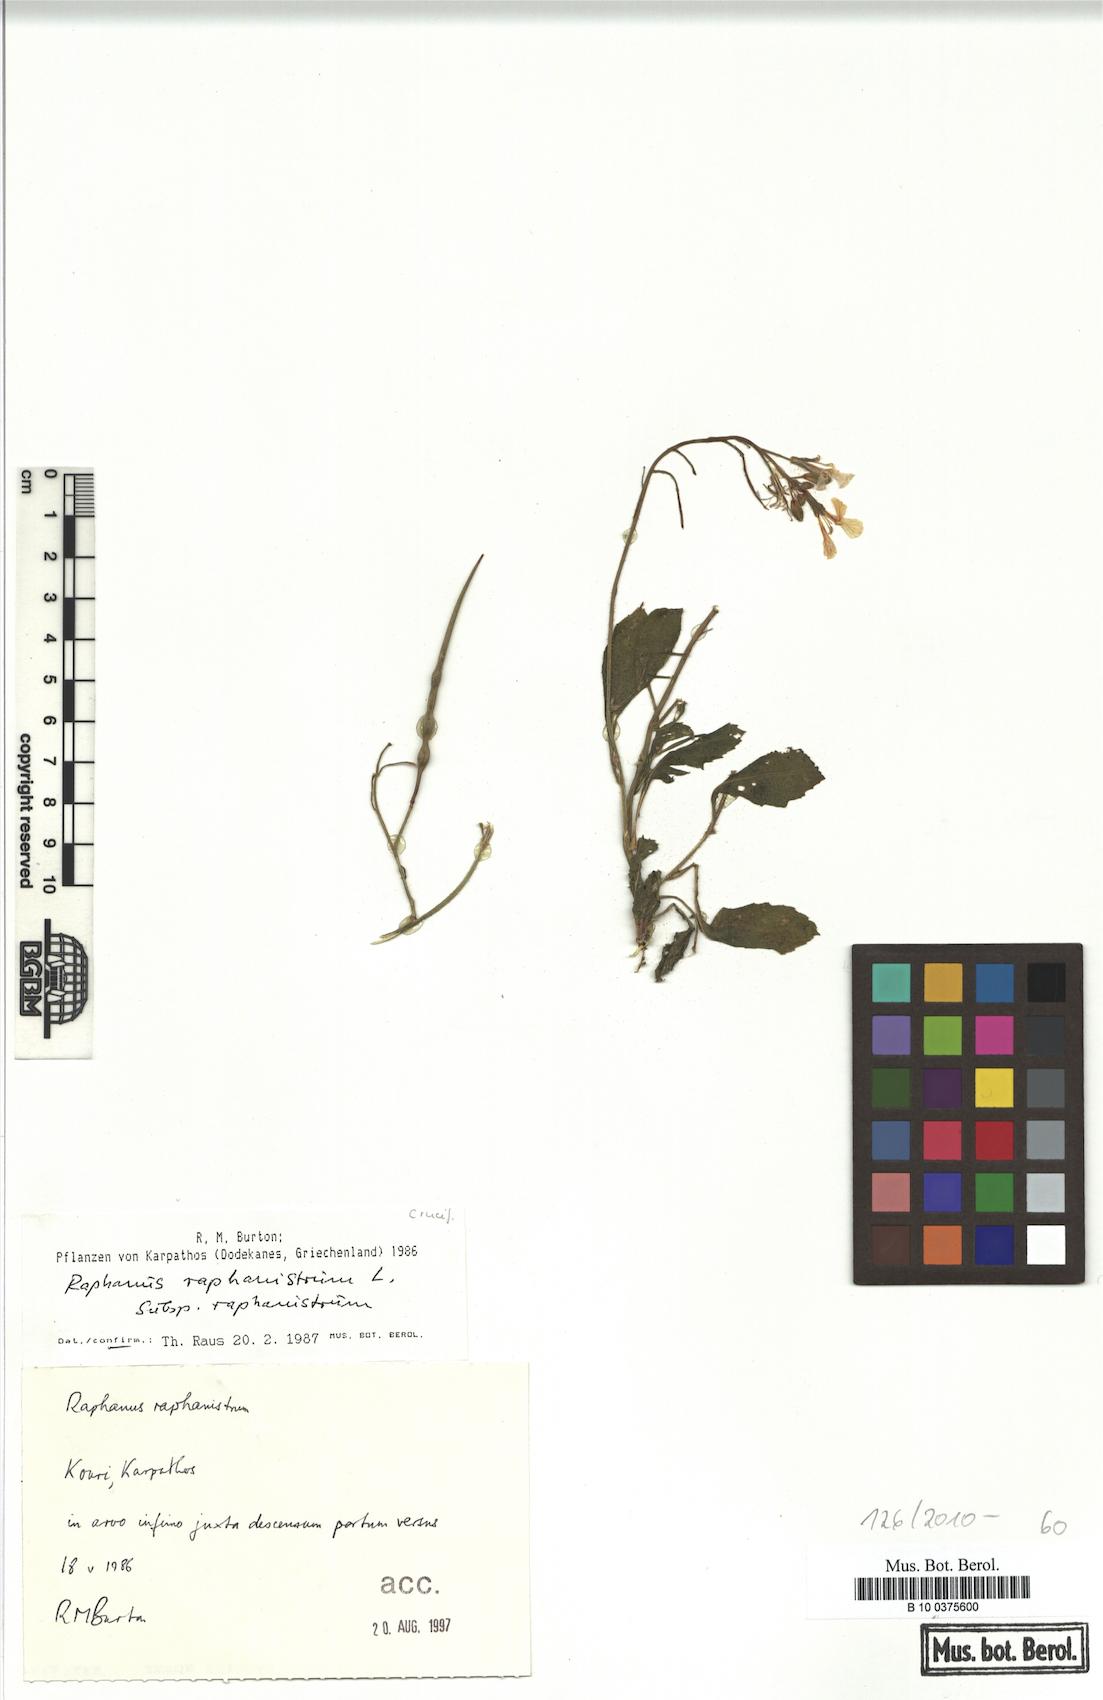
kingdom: Plantae
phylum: Tracheophyta
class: Magnoliopsida
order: Brassicales
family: Brassicaceae
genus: Raphanus
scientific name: Raphanus raphanistrum
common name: Wild radish
